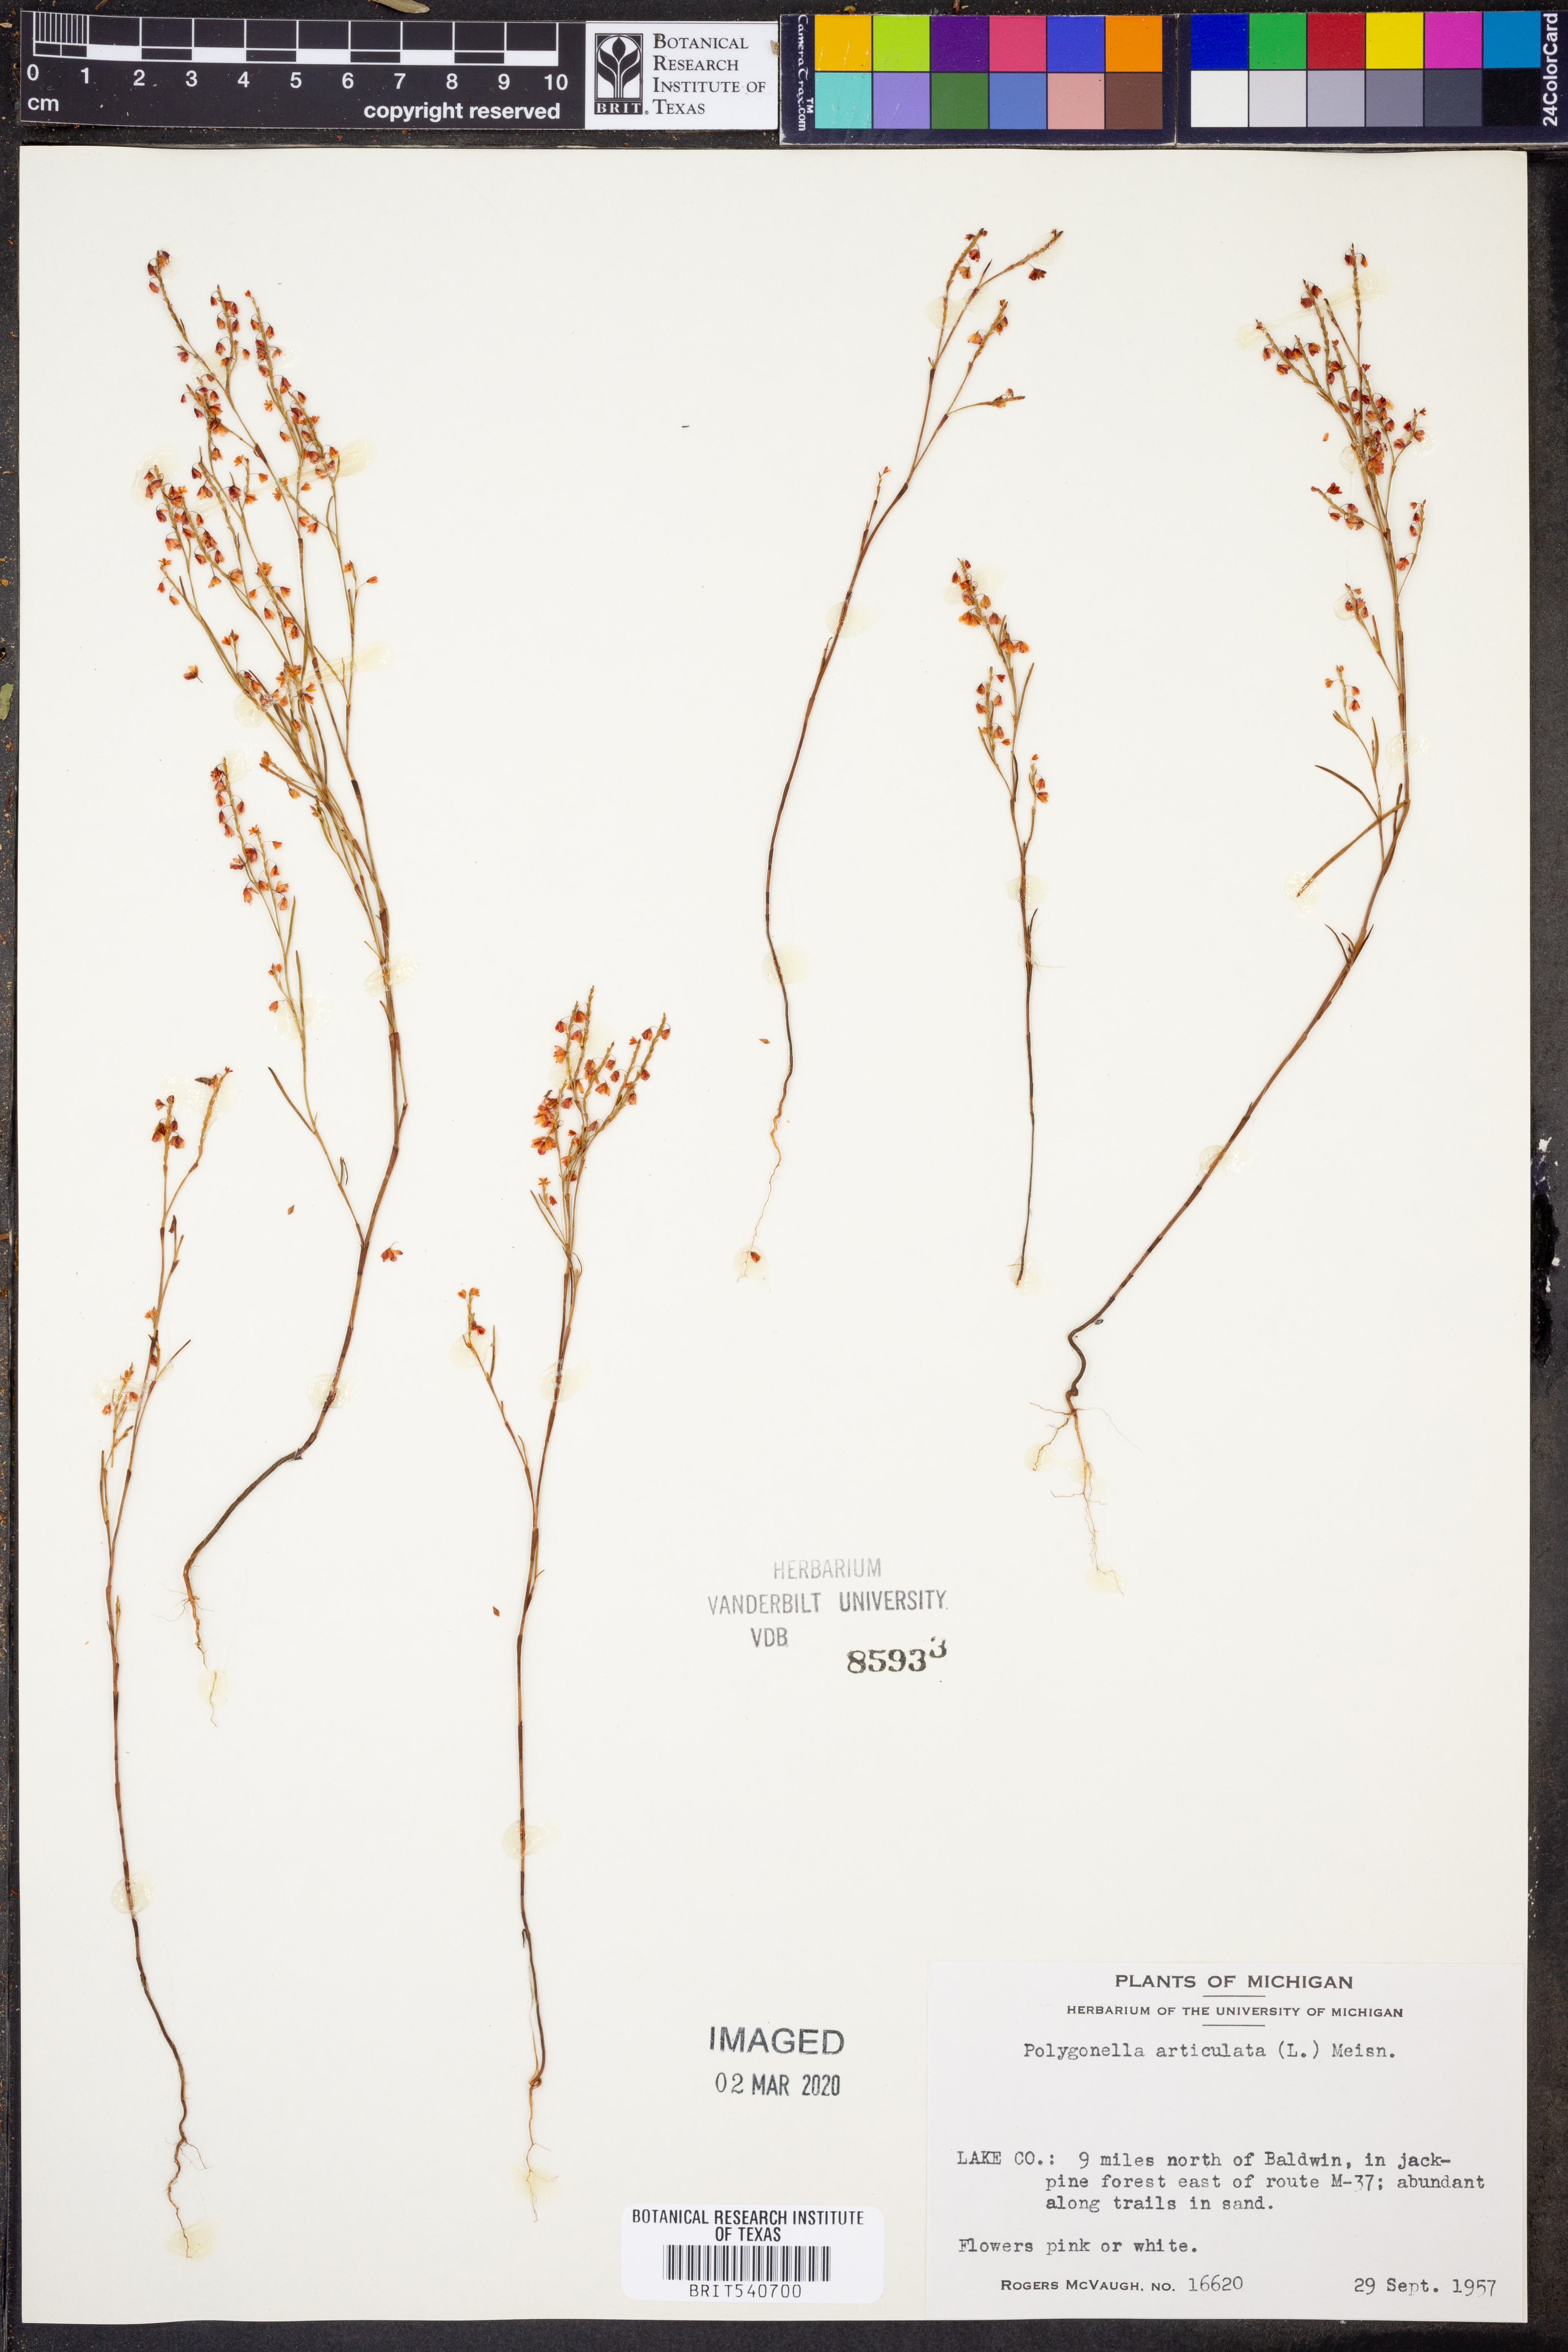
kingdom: Plantae
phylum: Tracheophyta
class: Magnoliopsida
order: Caryophyllales
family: Polygonaceae
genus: Polygonella
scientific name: Polygonella articulata
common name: Coastal jointweed
